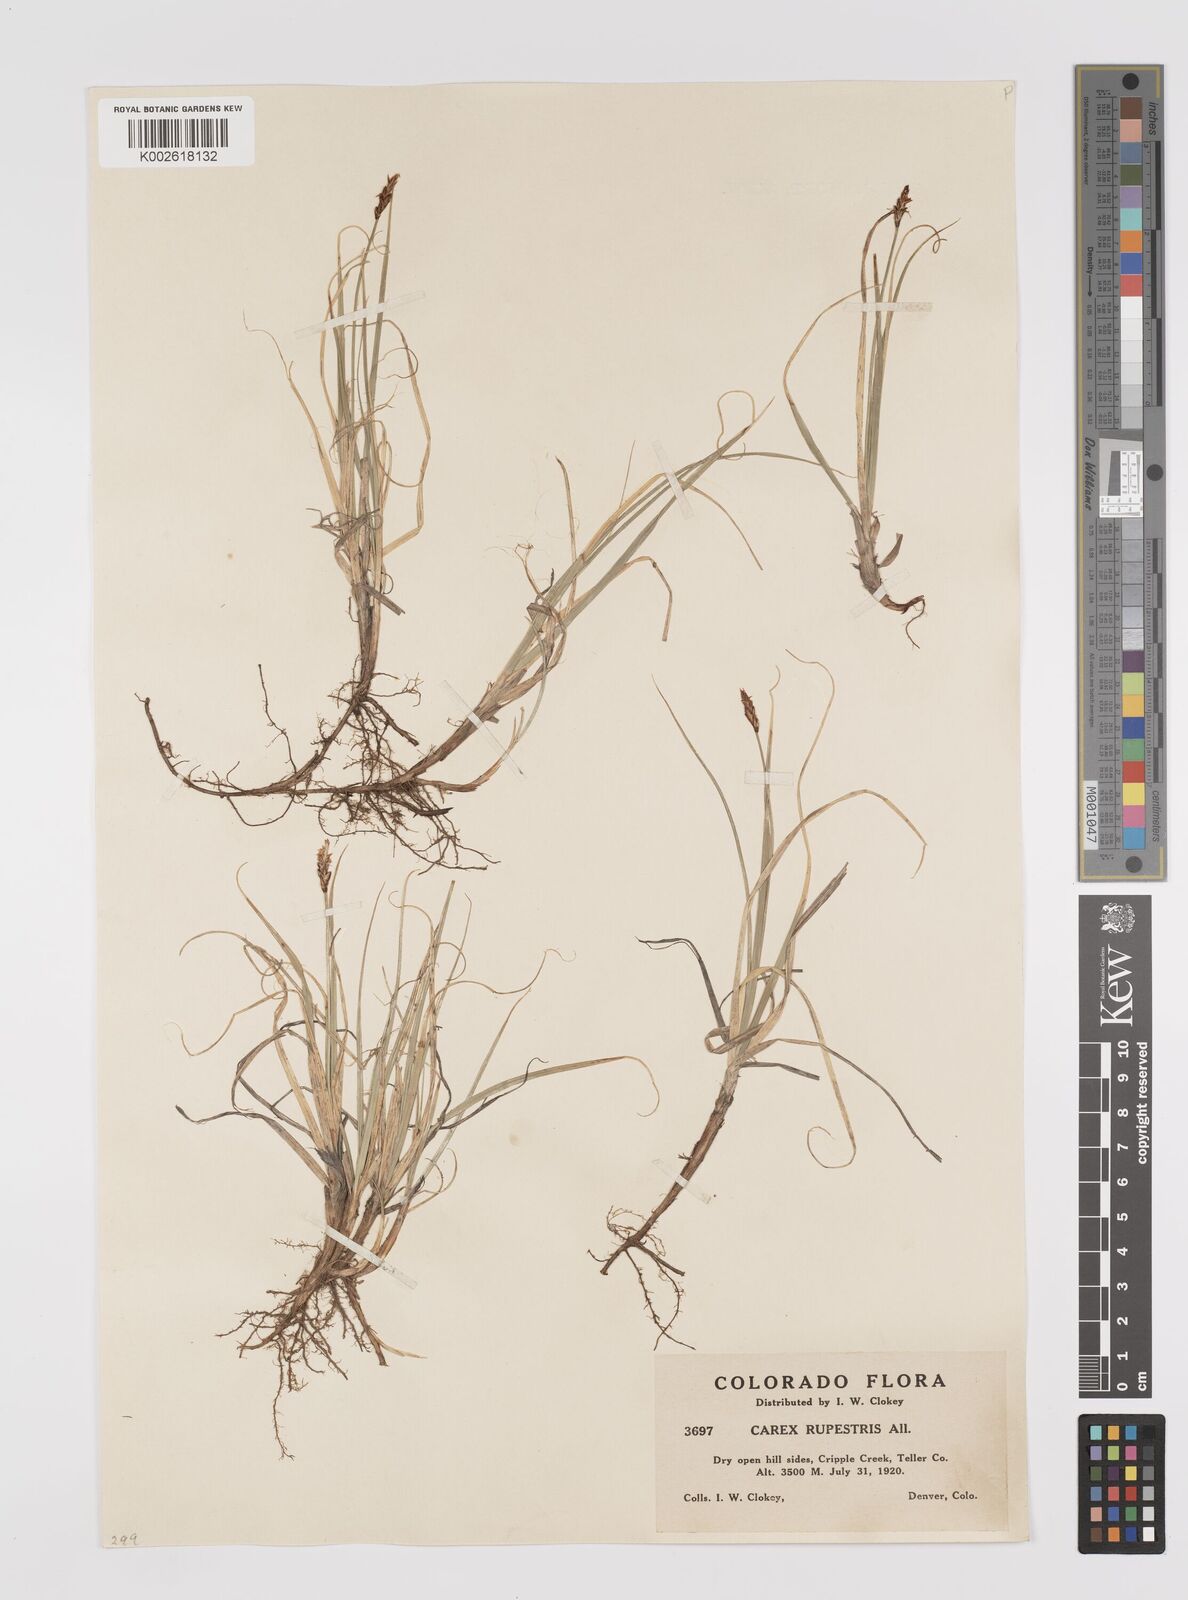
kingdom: Plantae
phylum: Tracheophyta
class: Liliopsida
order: Poales
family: Cyperaceae
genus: Carex
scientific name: Carex rupestris
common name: Rock sedge
